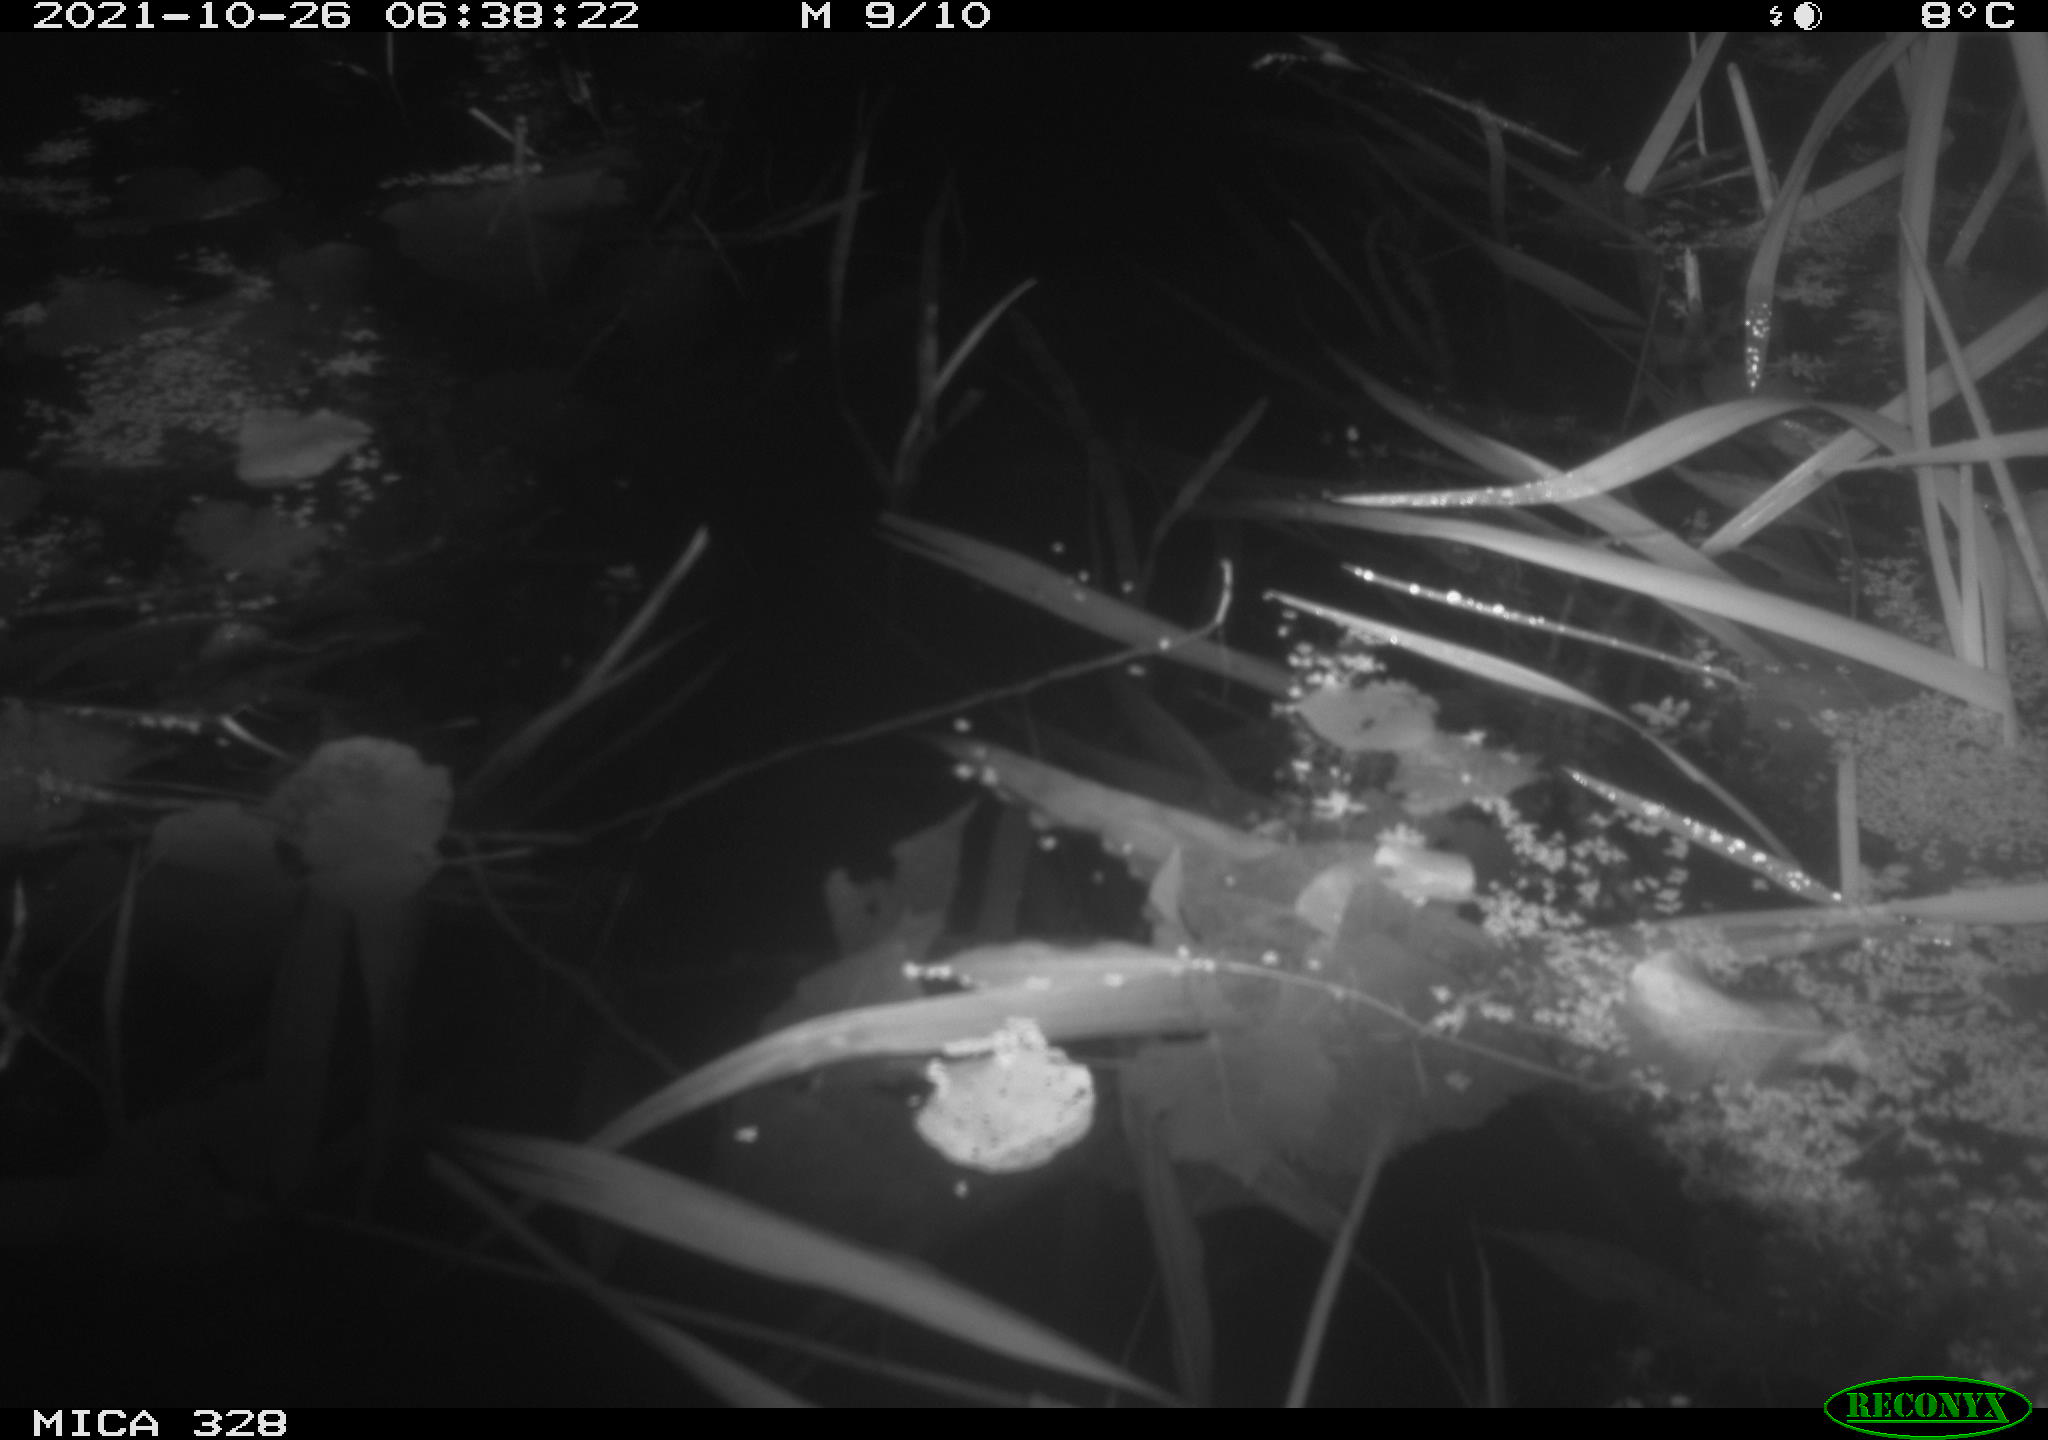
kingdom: Animalia
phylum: Chordata
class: Mammalia
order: Rodentia
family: Cricetidae
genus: Ondatra
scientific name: Ondatra zibethicus
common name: Muskrat
